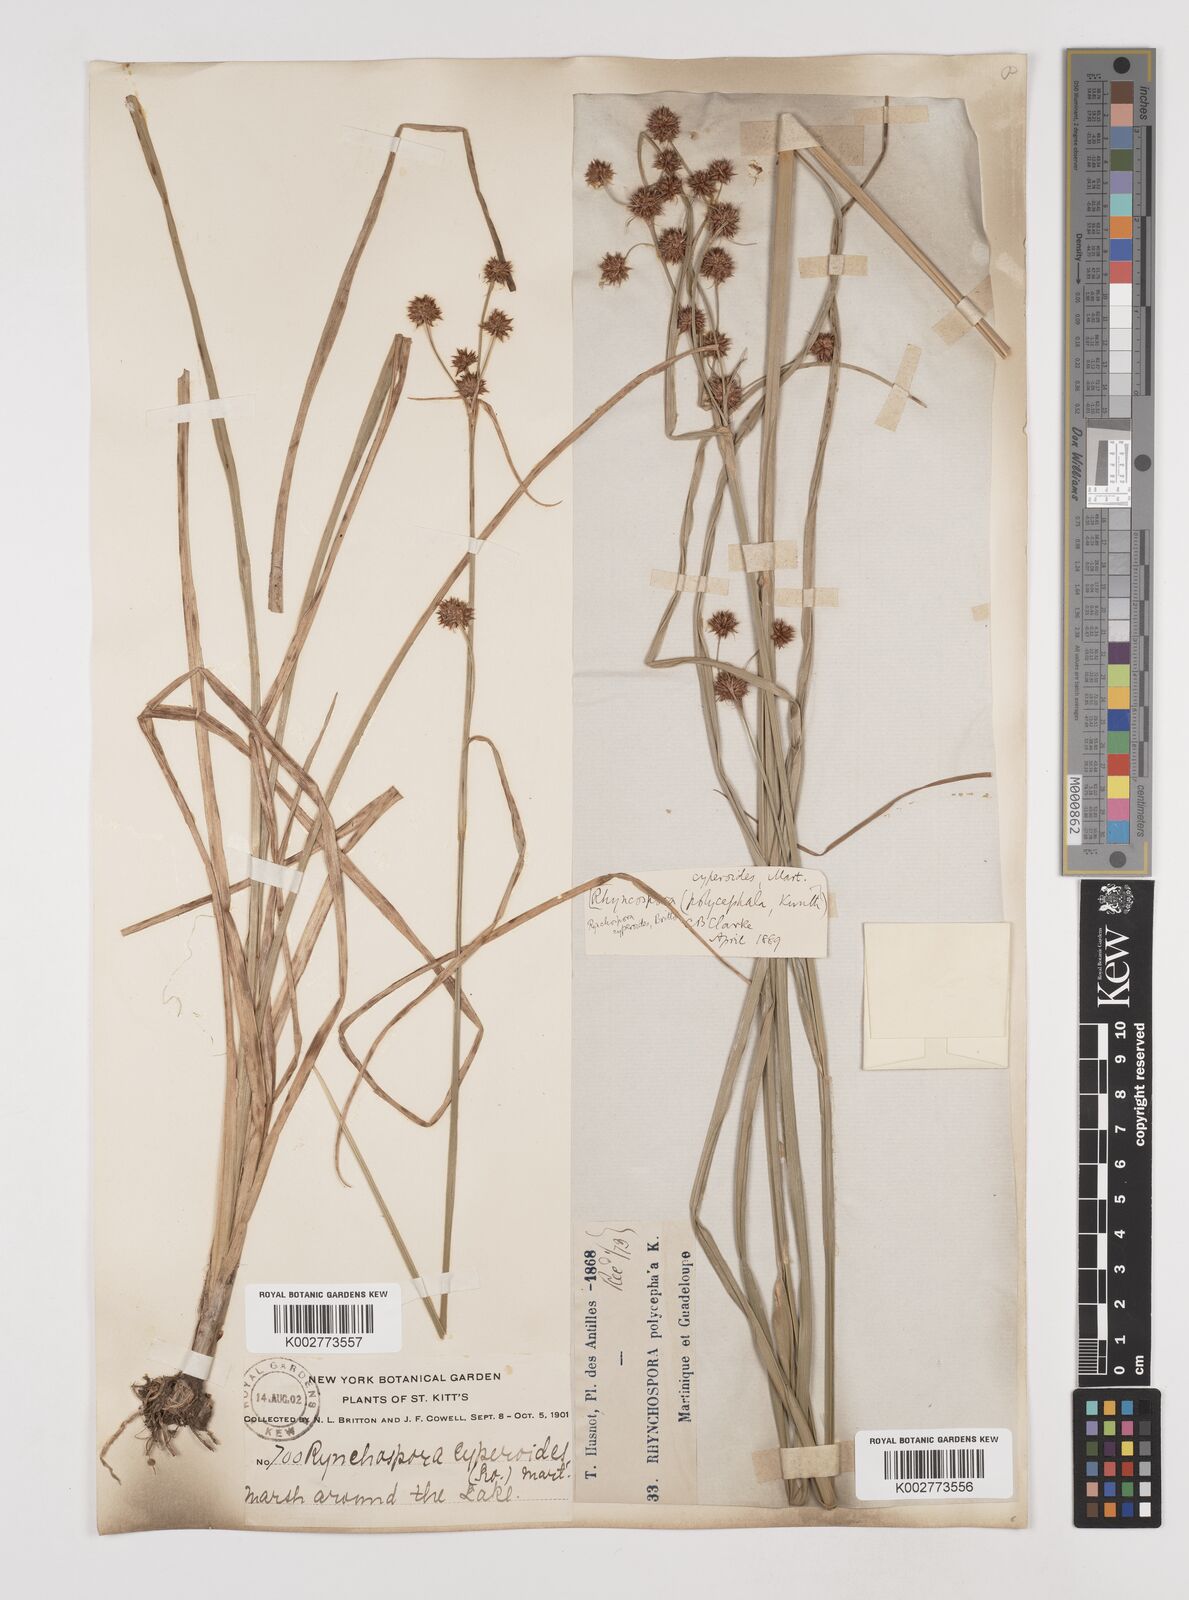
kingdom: Plantae
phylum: Tracheophyta
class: Liliopsida
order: Poales
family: Cyperaceae
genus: Rhynchospora
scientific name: Rhynchospora holoschoenoides
